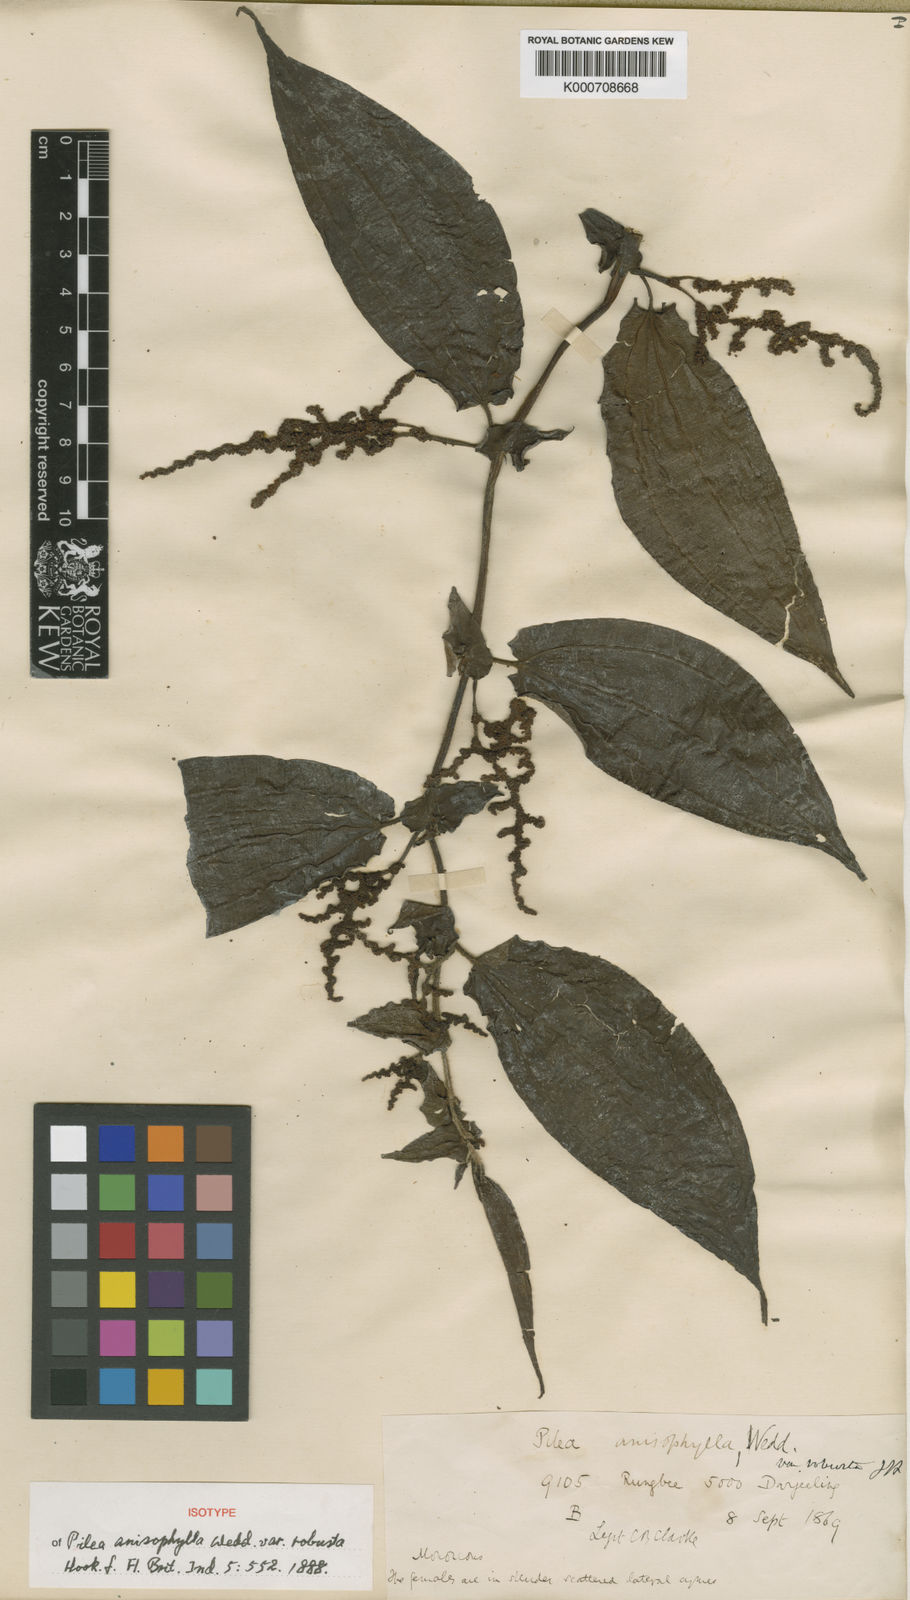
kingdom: Plantae
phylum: Tracheophyta
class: Magnoliopsida
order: Rosales
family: Urticaceae
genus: Pilea
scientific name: Pilea anisophylla
